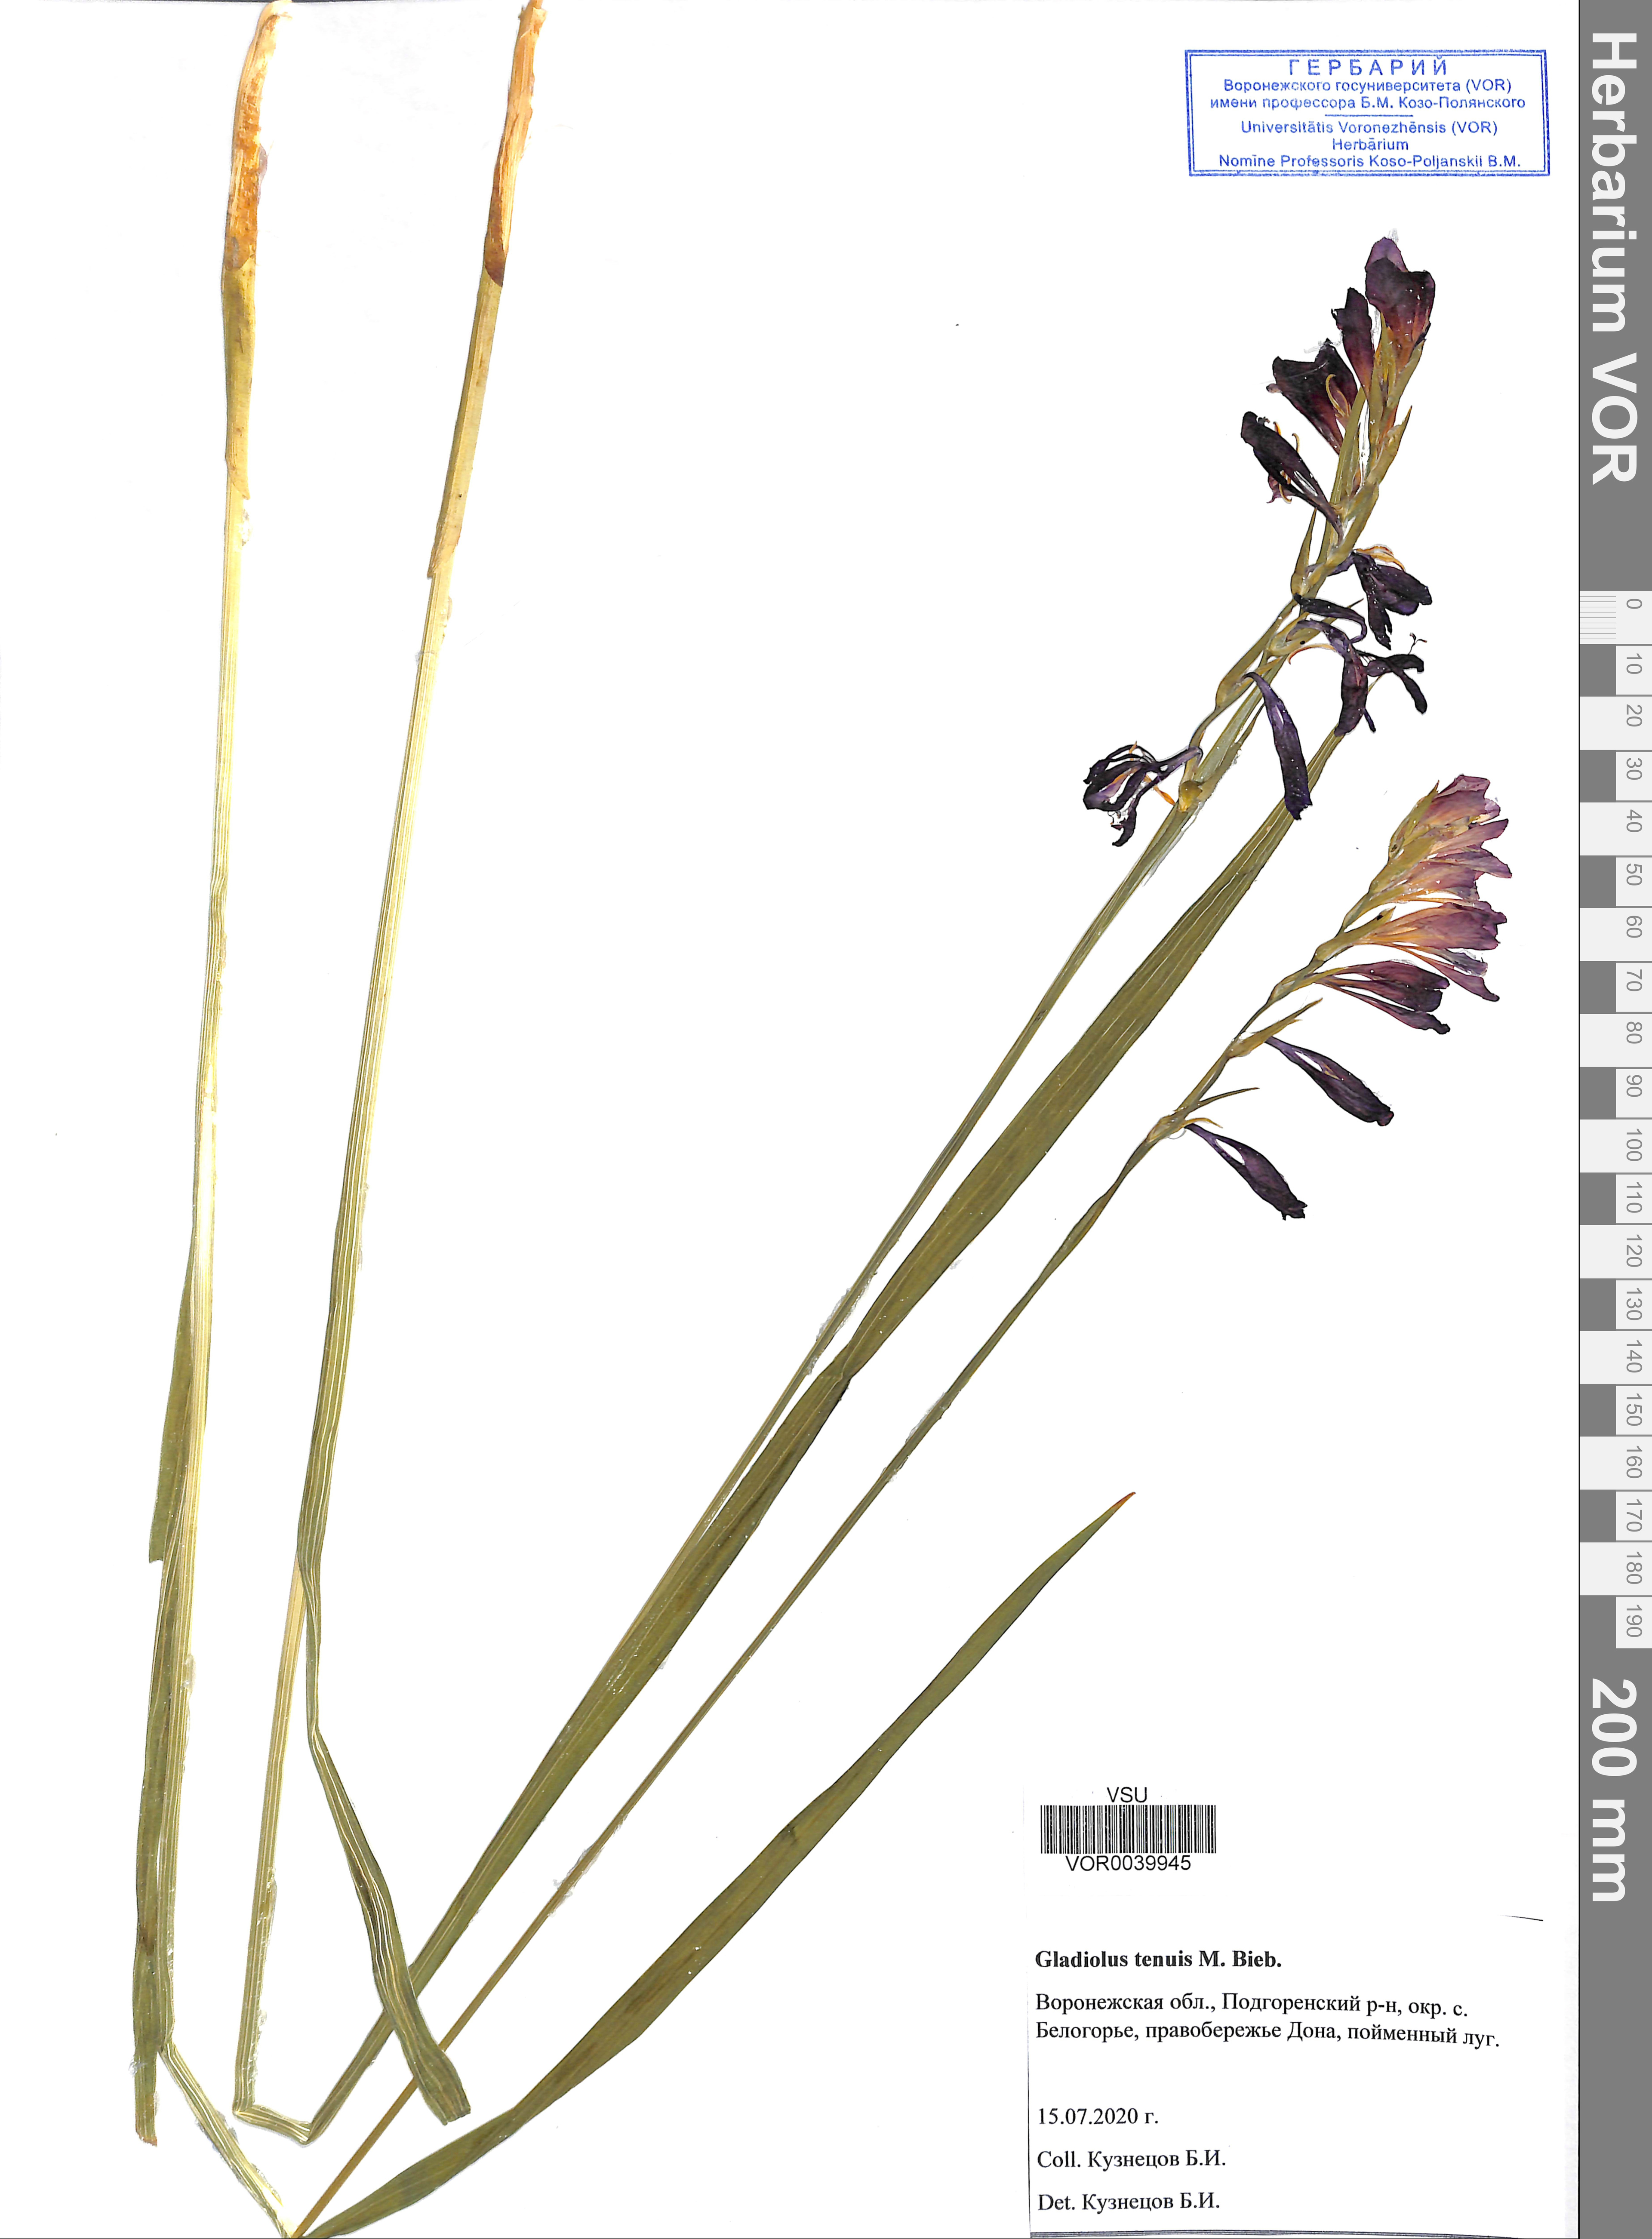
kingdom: Plantae
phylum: Tracheophyta
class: Liliopsida
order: Asparagales
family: Iridaceae
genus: Gladiolus
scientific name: Gladiolus tenuis
